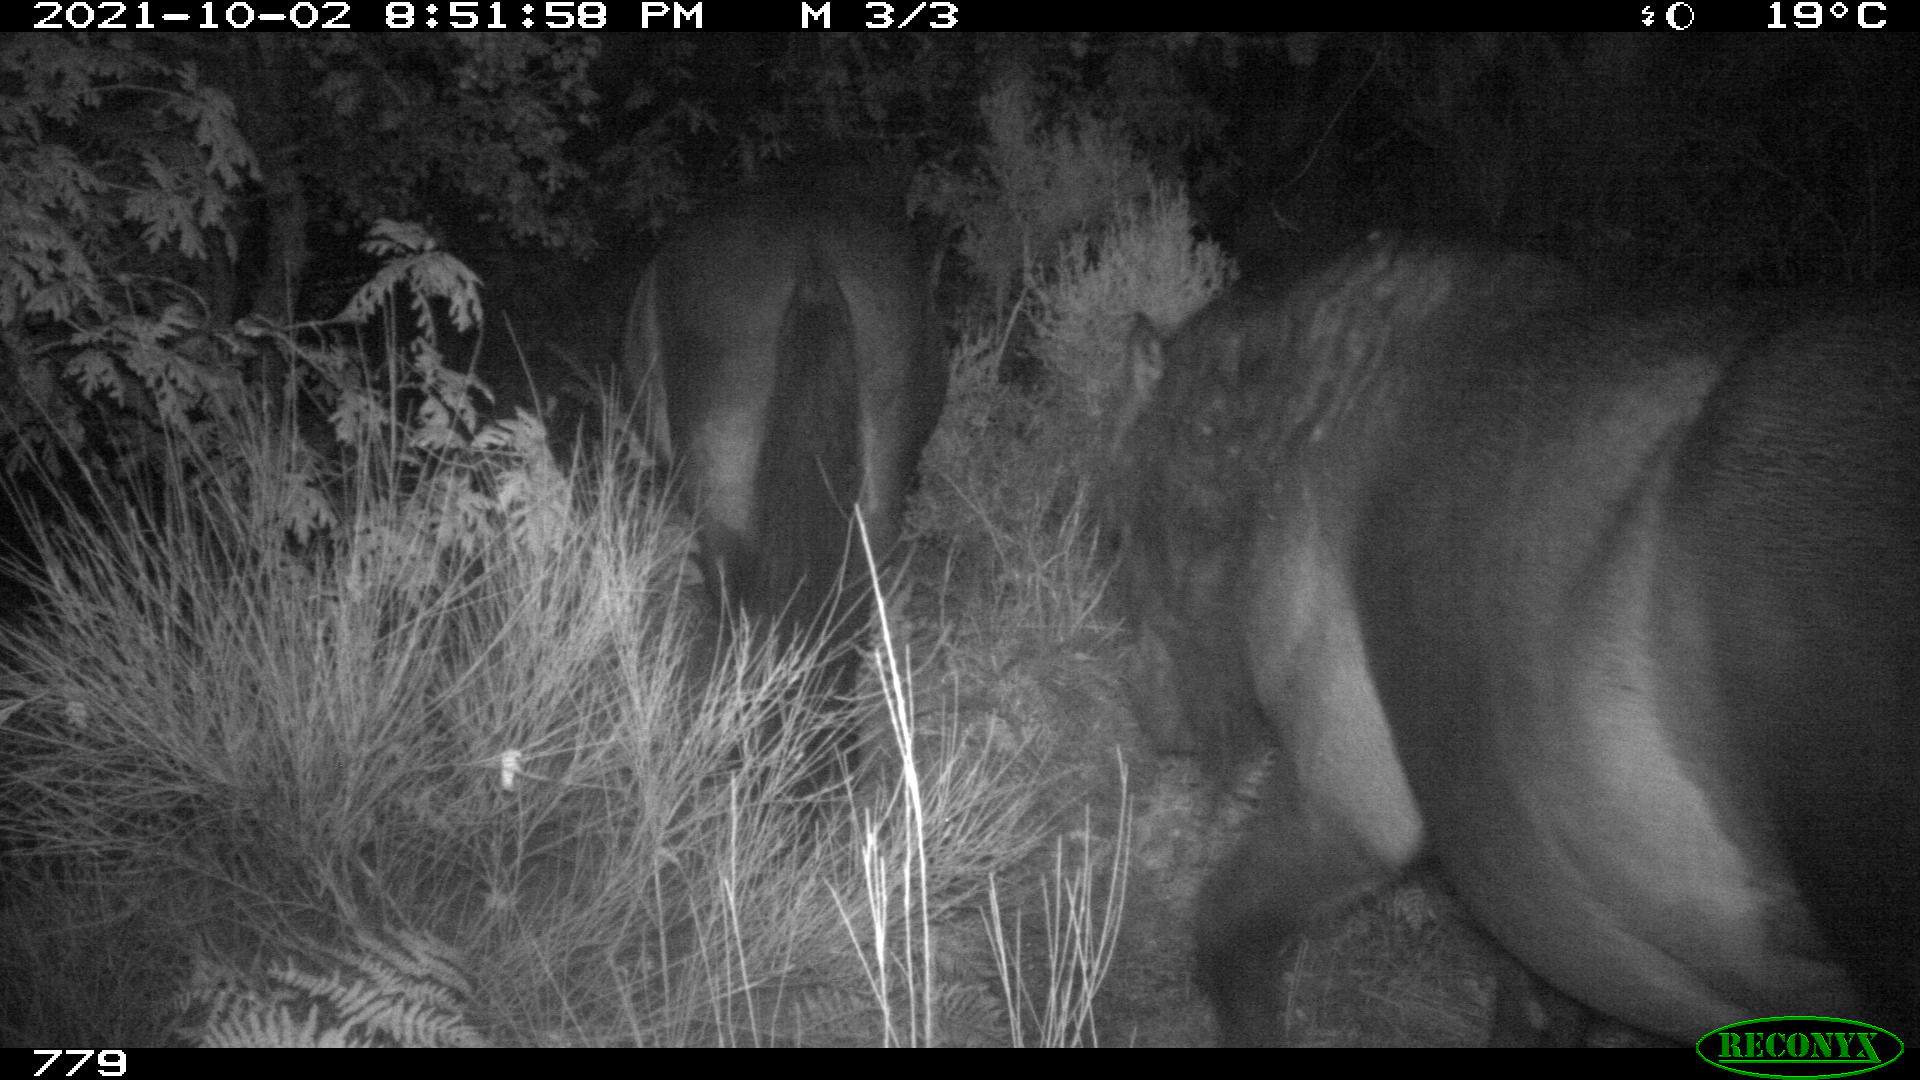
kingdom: Animalia
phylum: Chordata
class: Mammalia
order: Perissodactyla
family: Equidae
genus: Equus
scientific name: Equus caballus
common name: Horse
